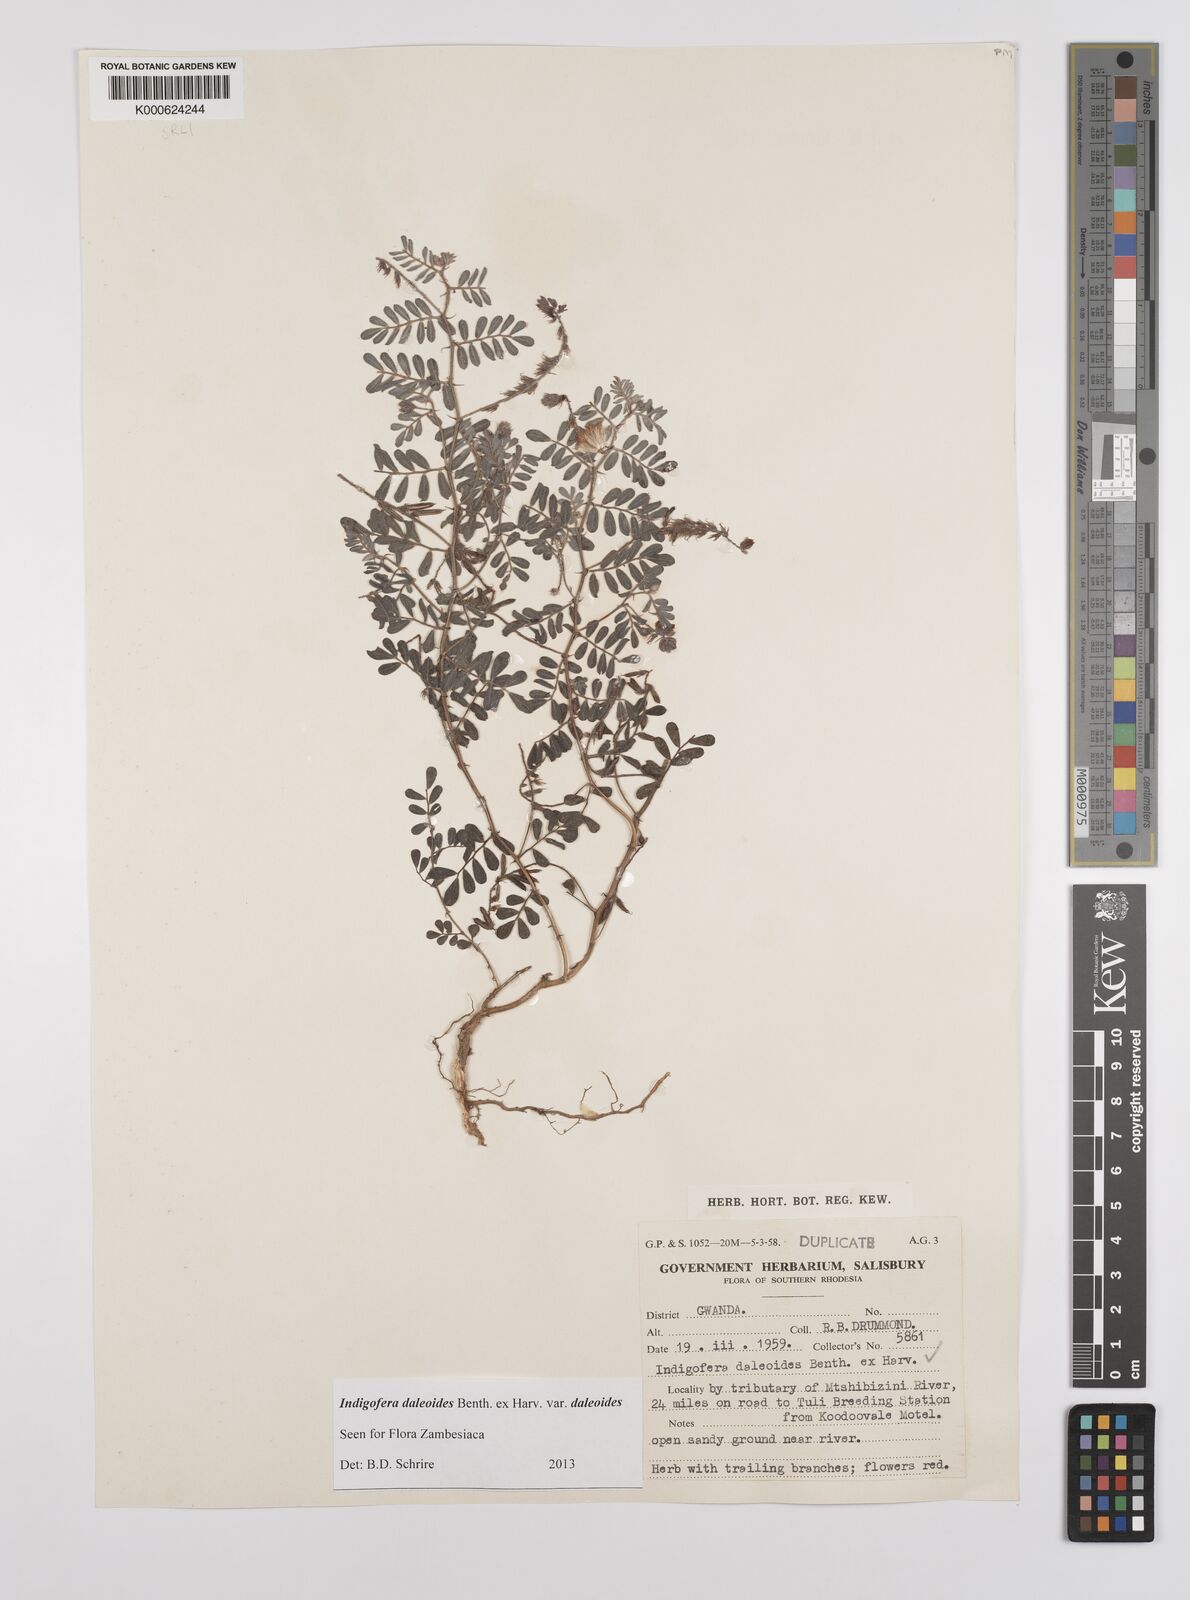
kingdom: Plantae
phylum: Tracheophyta
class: Magnoliopsida
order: Fabales
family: Fabaceae
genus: Indigofera
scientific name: Indigofera daleoides
